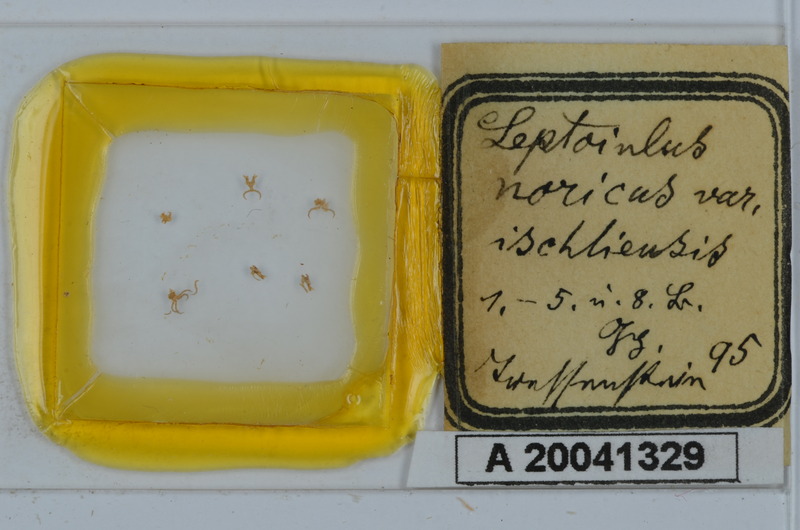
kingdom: Animalia
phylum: Arthropoda
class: Diplopoda
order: Julida
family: Julidae
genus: Leptoiulus
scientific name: Leptoiulus noricus
